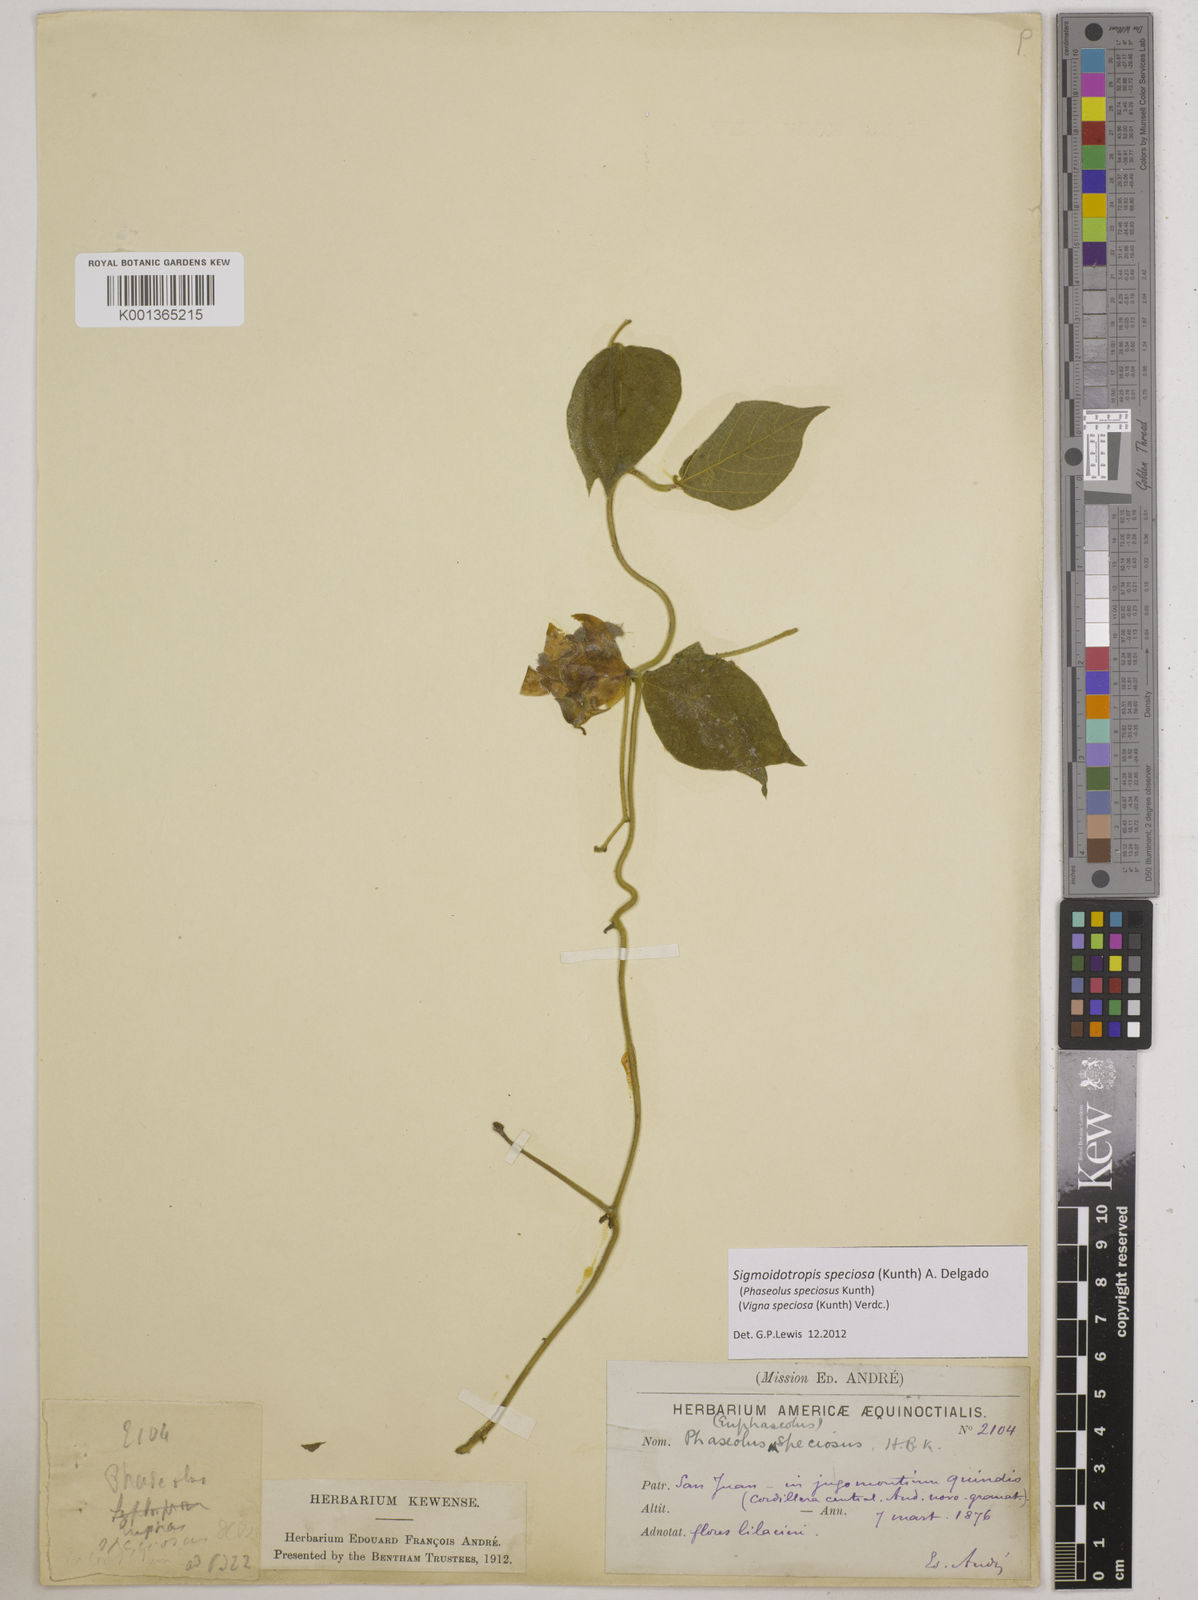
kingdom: Plantae
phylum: Tracheophyta
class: Magnoliopsida
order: Fabales
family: Fabaceae
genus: Sigmoidotropis
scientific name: Sigmoidotropis speciosa
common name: Snail flower
